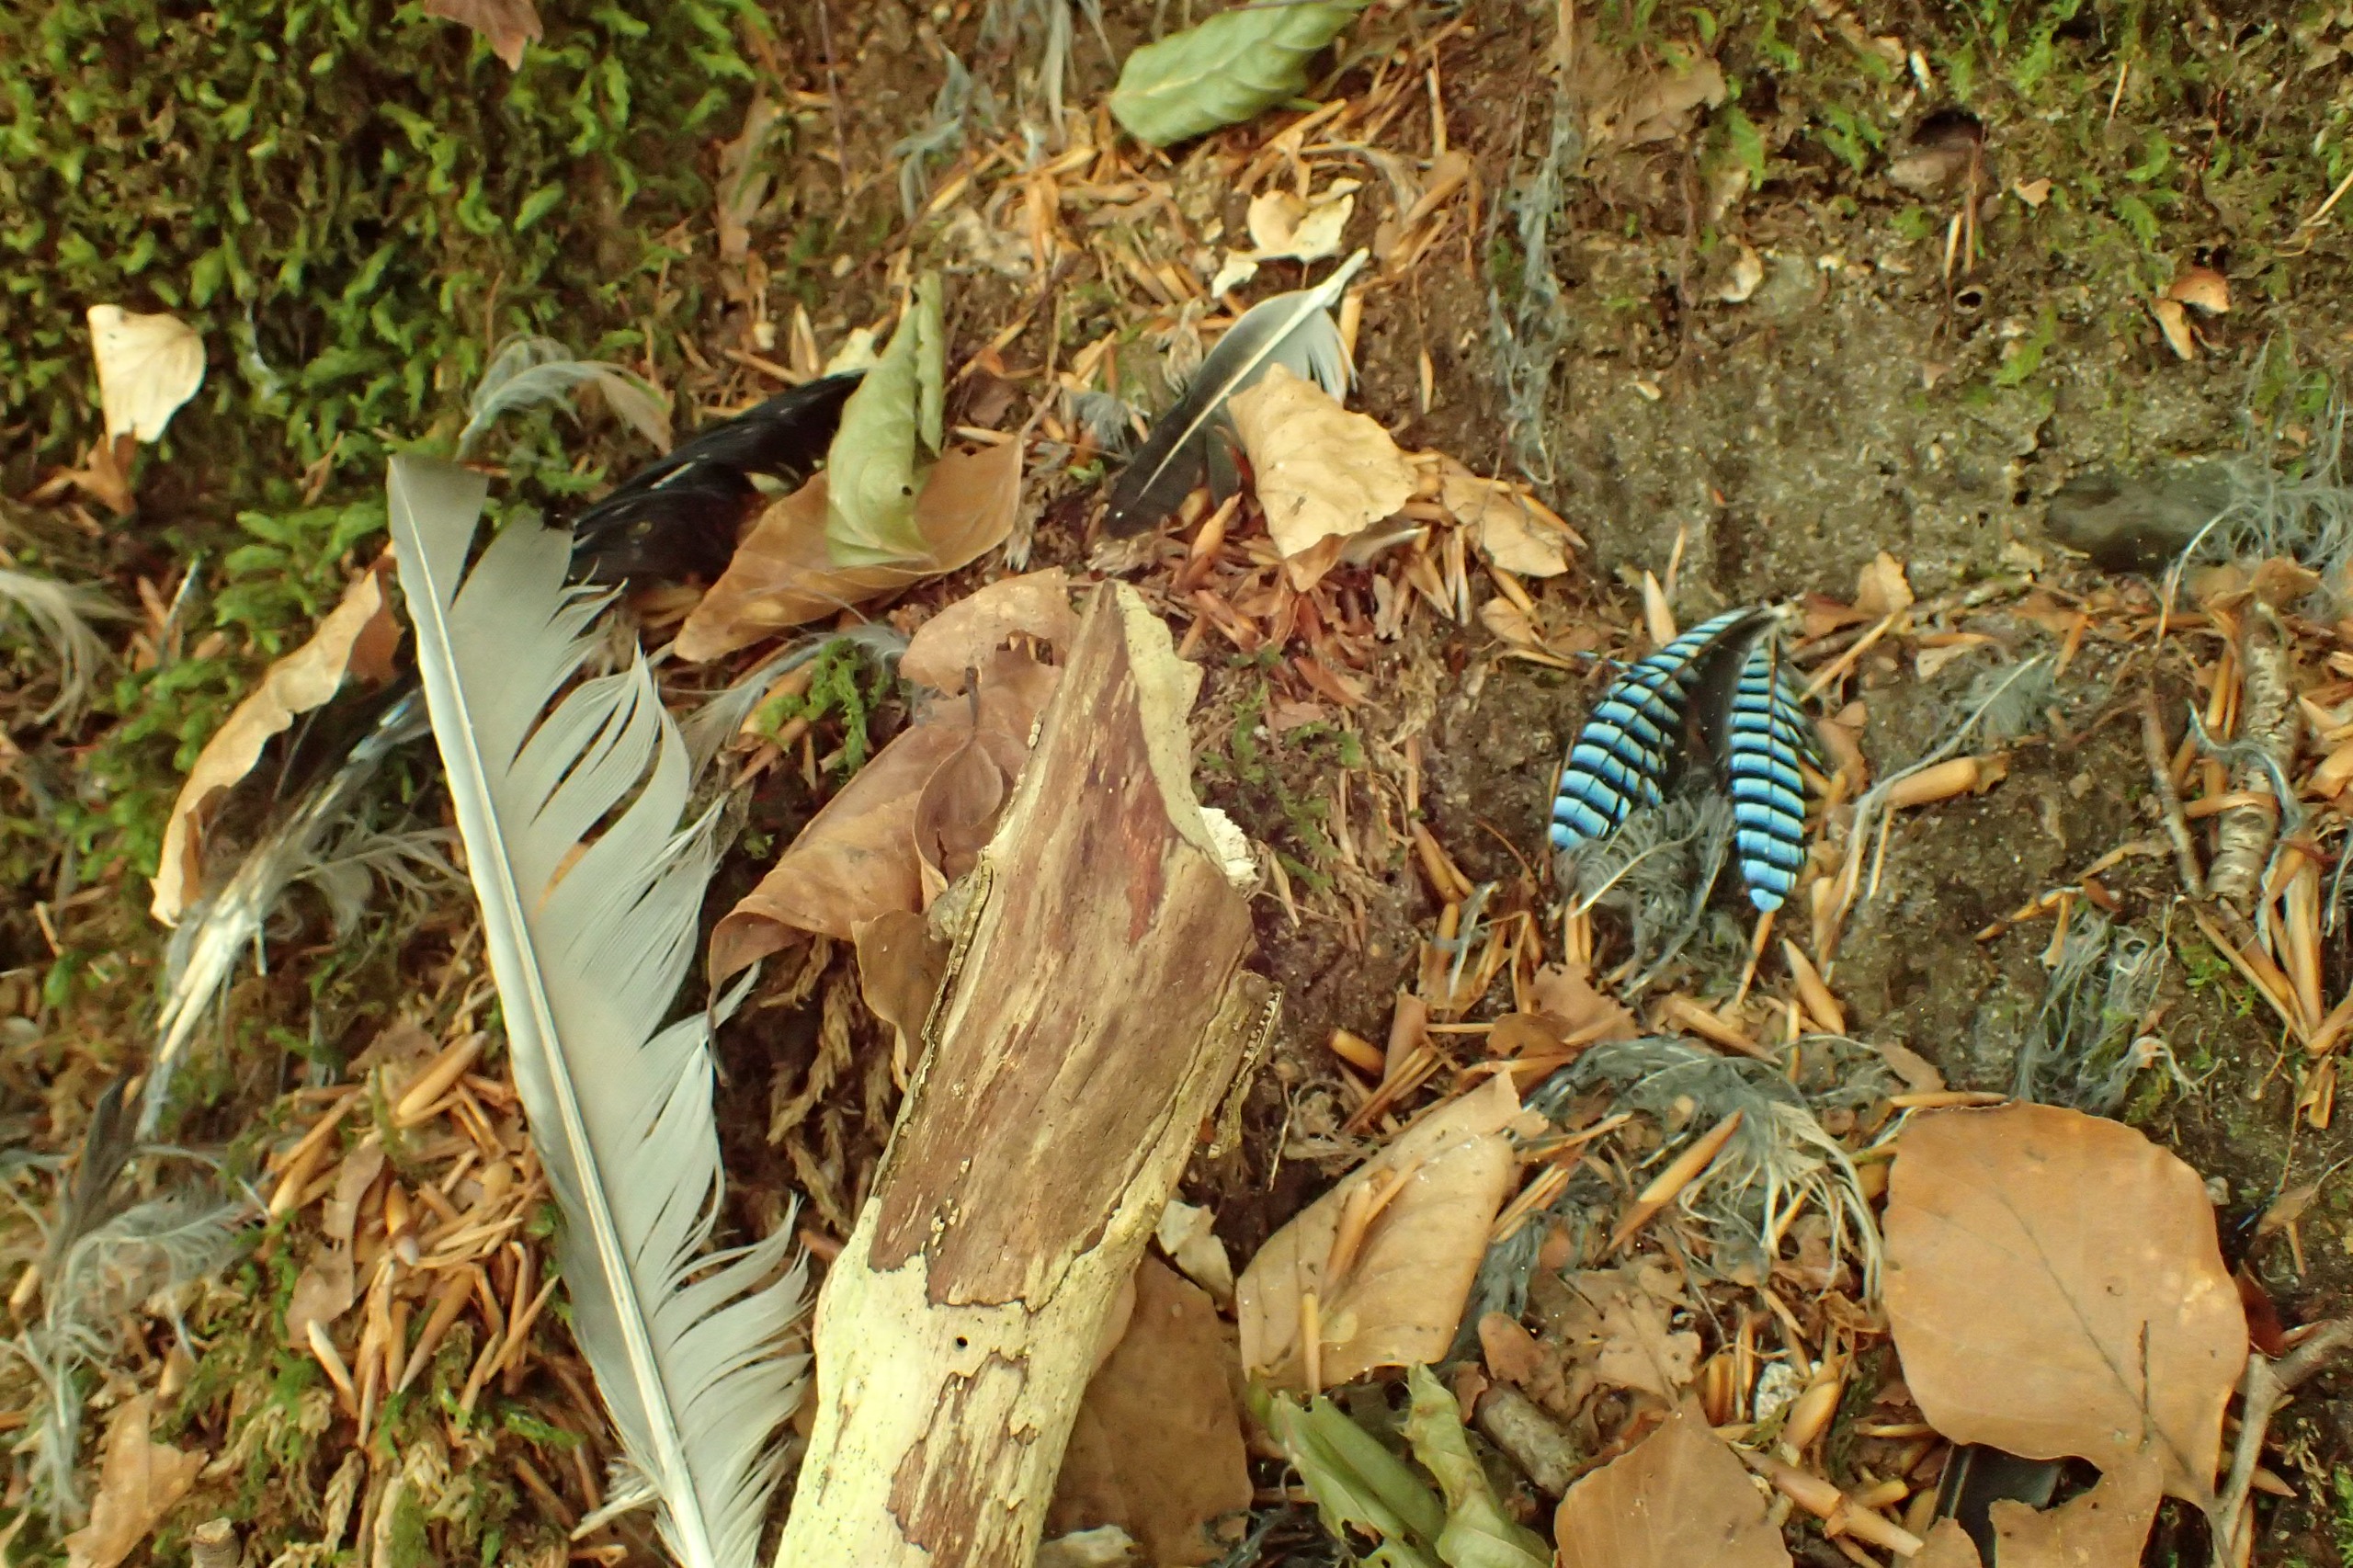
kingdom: Animalia
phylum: Chordata
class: Aves
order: Passeriformes
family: Corvidae
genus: Garrulus
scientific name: Garrulus glandarius
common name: Skovskade
